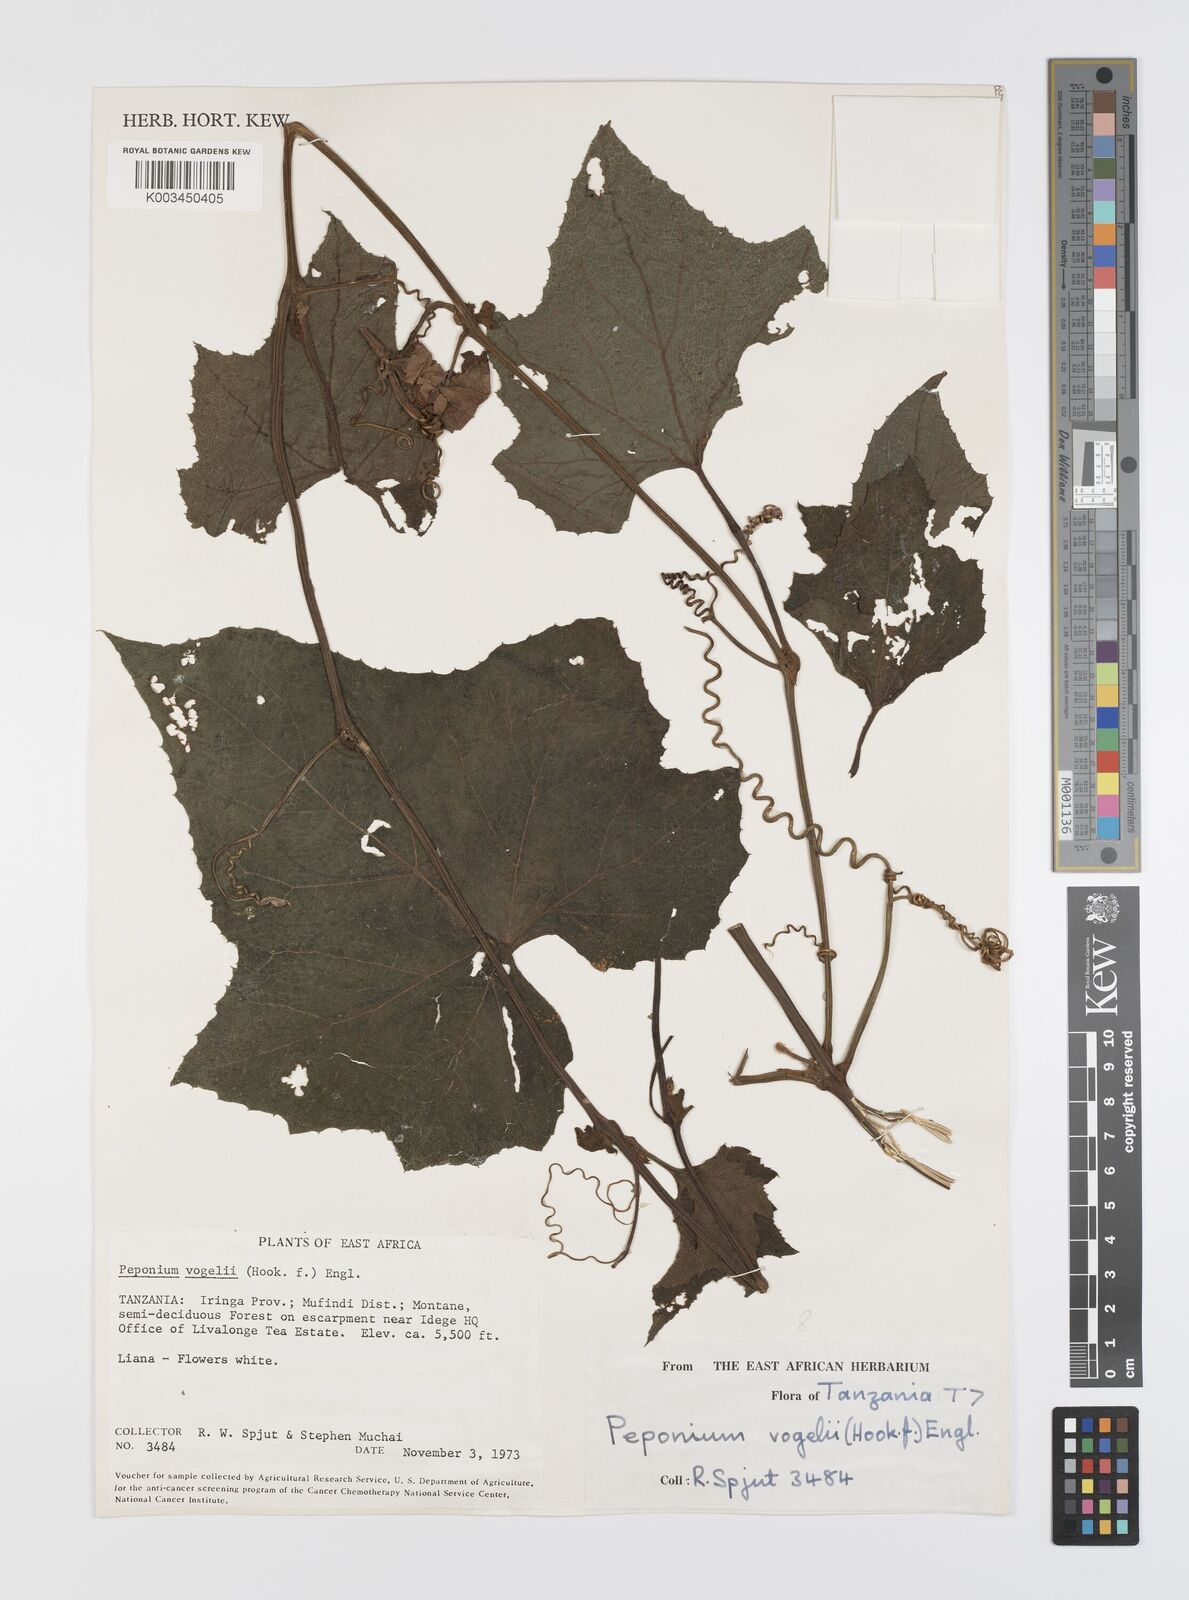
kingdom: Plantae
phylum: Tracheophyta
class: Magnoliopsida
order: Cucurbitales
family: Cucurbitaceae
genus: Peponium
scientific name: Peponium vogelii
